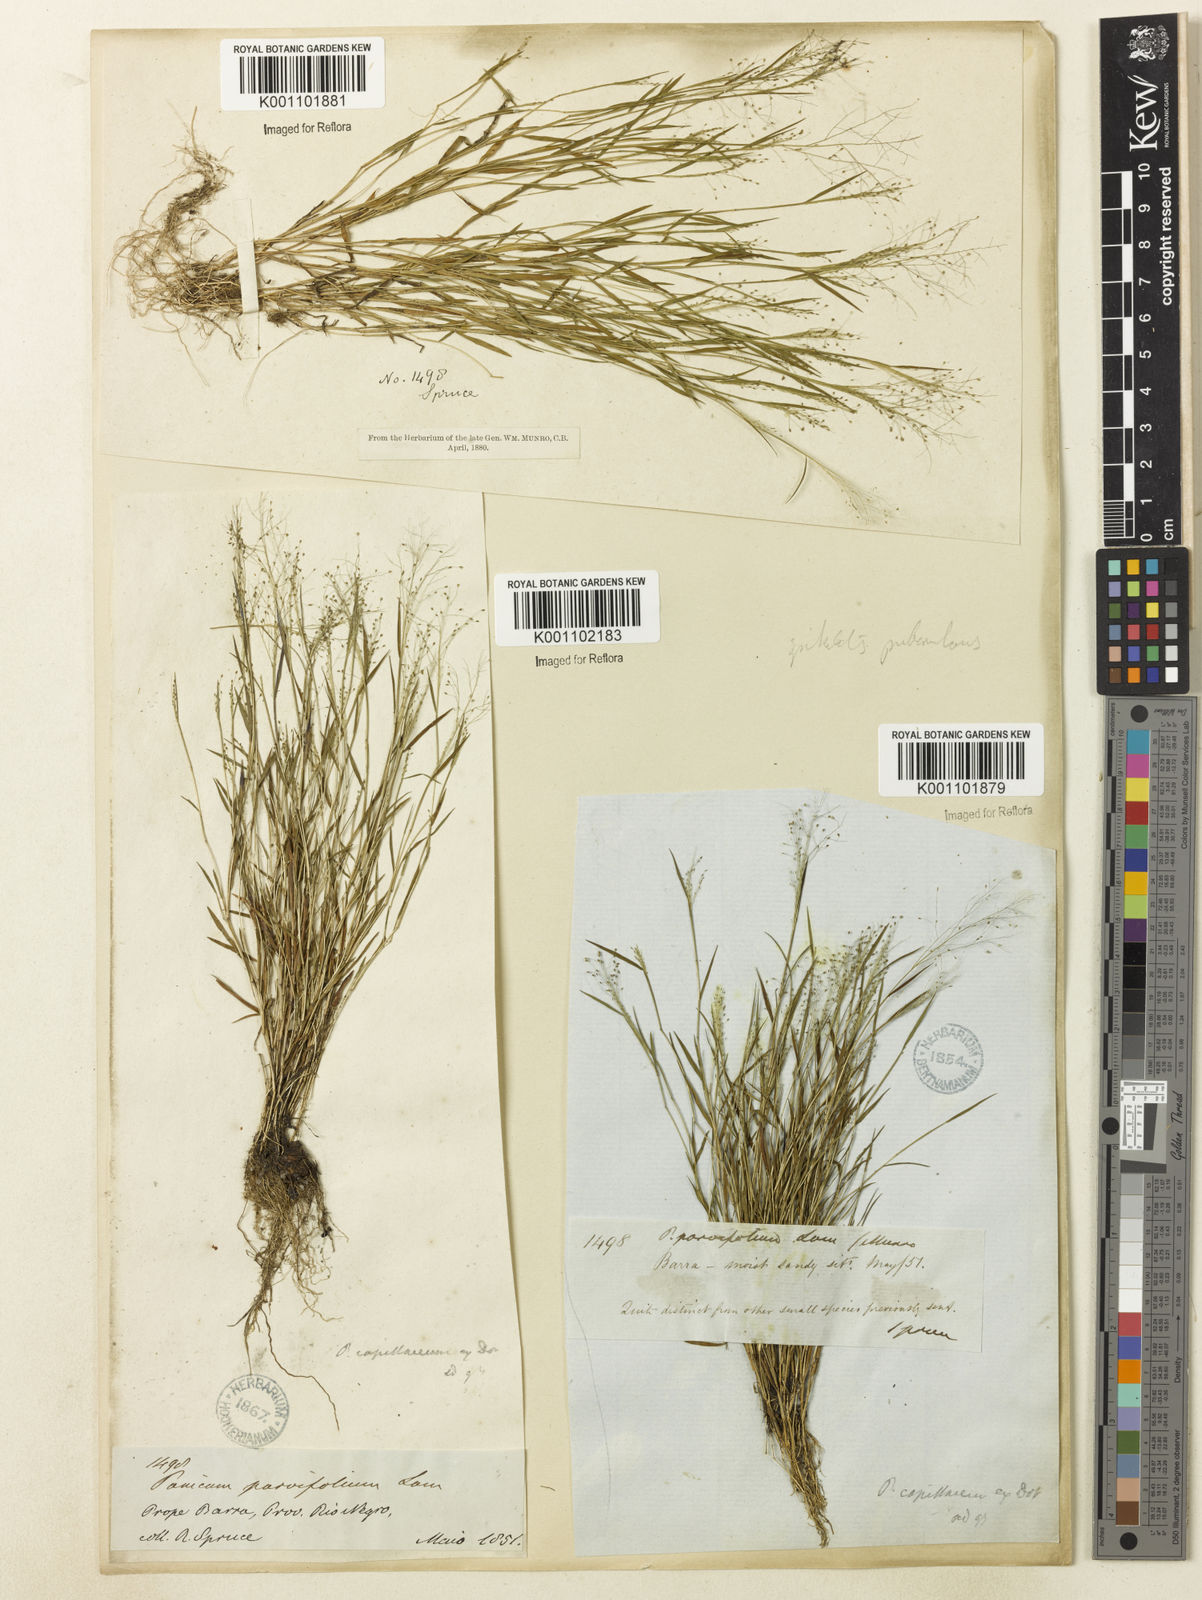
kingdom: Plantae
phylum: Tracheophyta
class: Liliopsida
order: Poales
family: Poaceae
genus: Trichanthecium
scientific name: Trichanthecium polycomum
